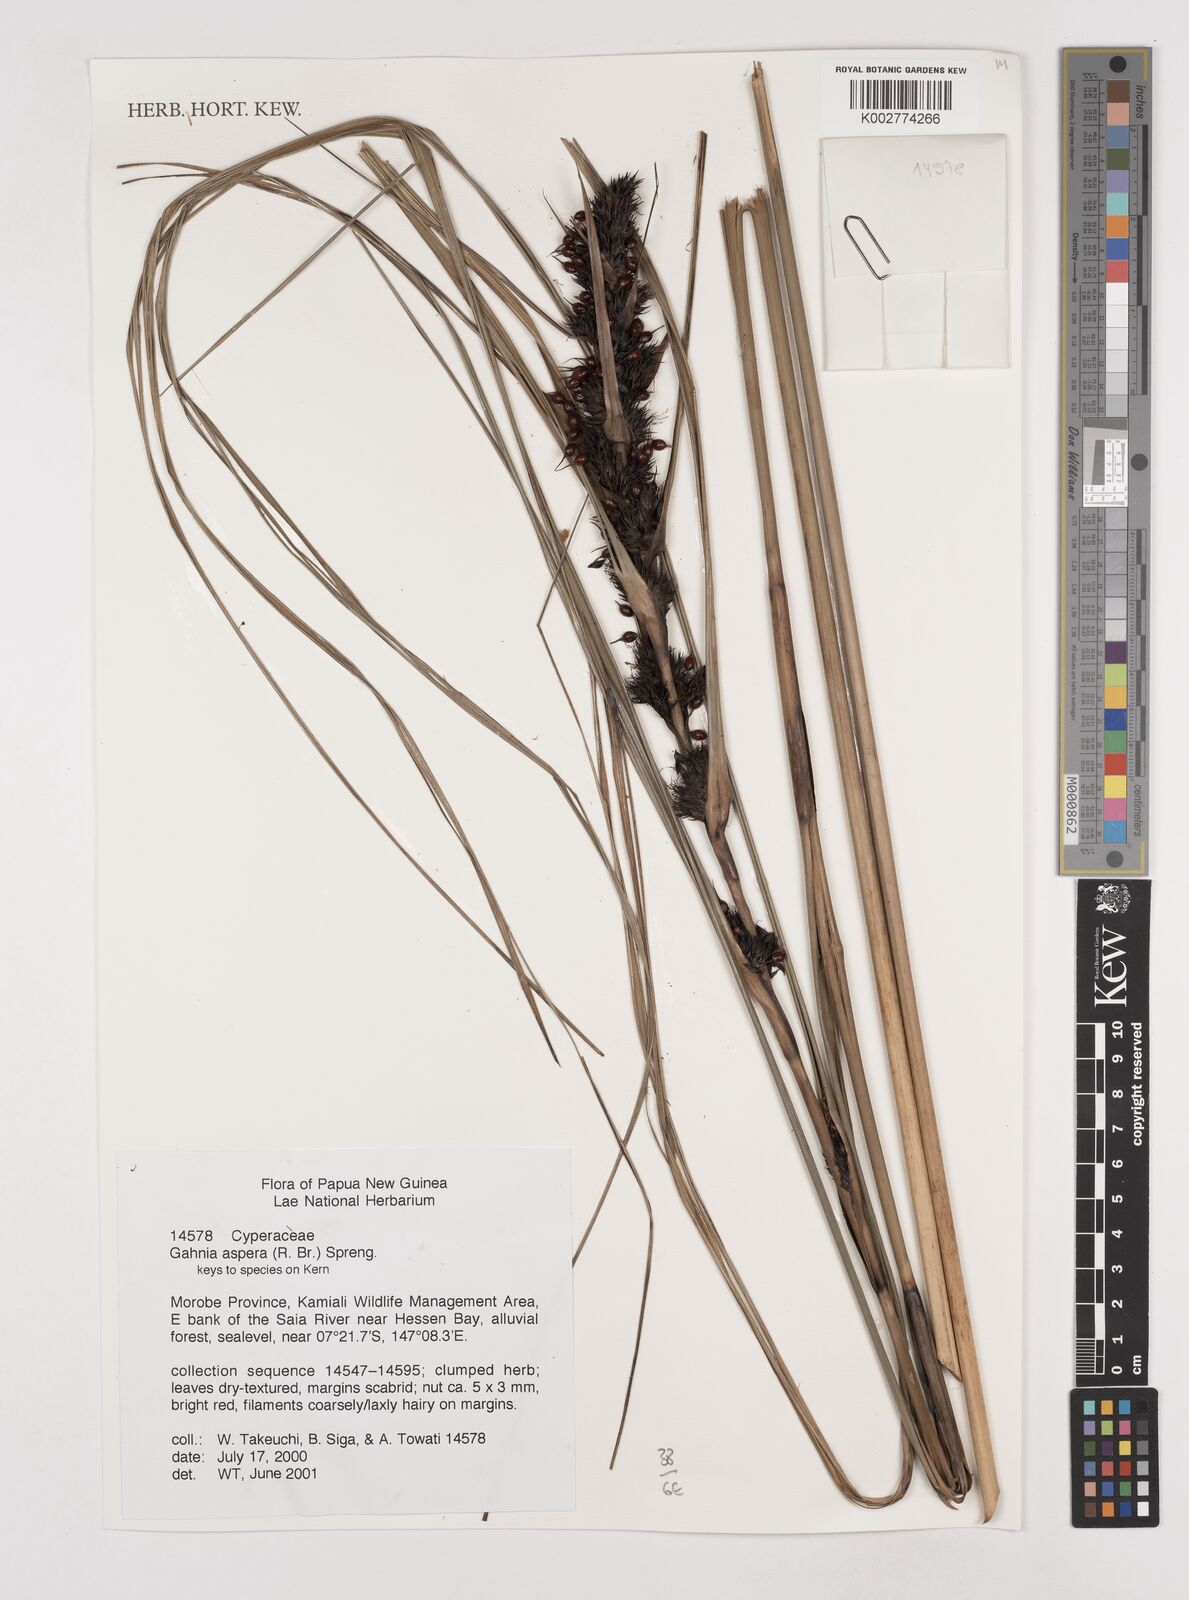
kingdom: Plantae
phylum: Tracheophyta
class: Liliopsida
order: Poales
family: Cyperaceae
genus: Gahnia
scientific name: Gahnia aspera
